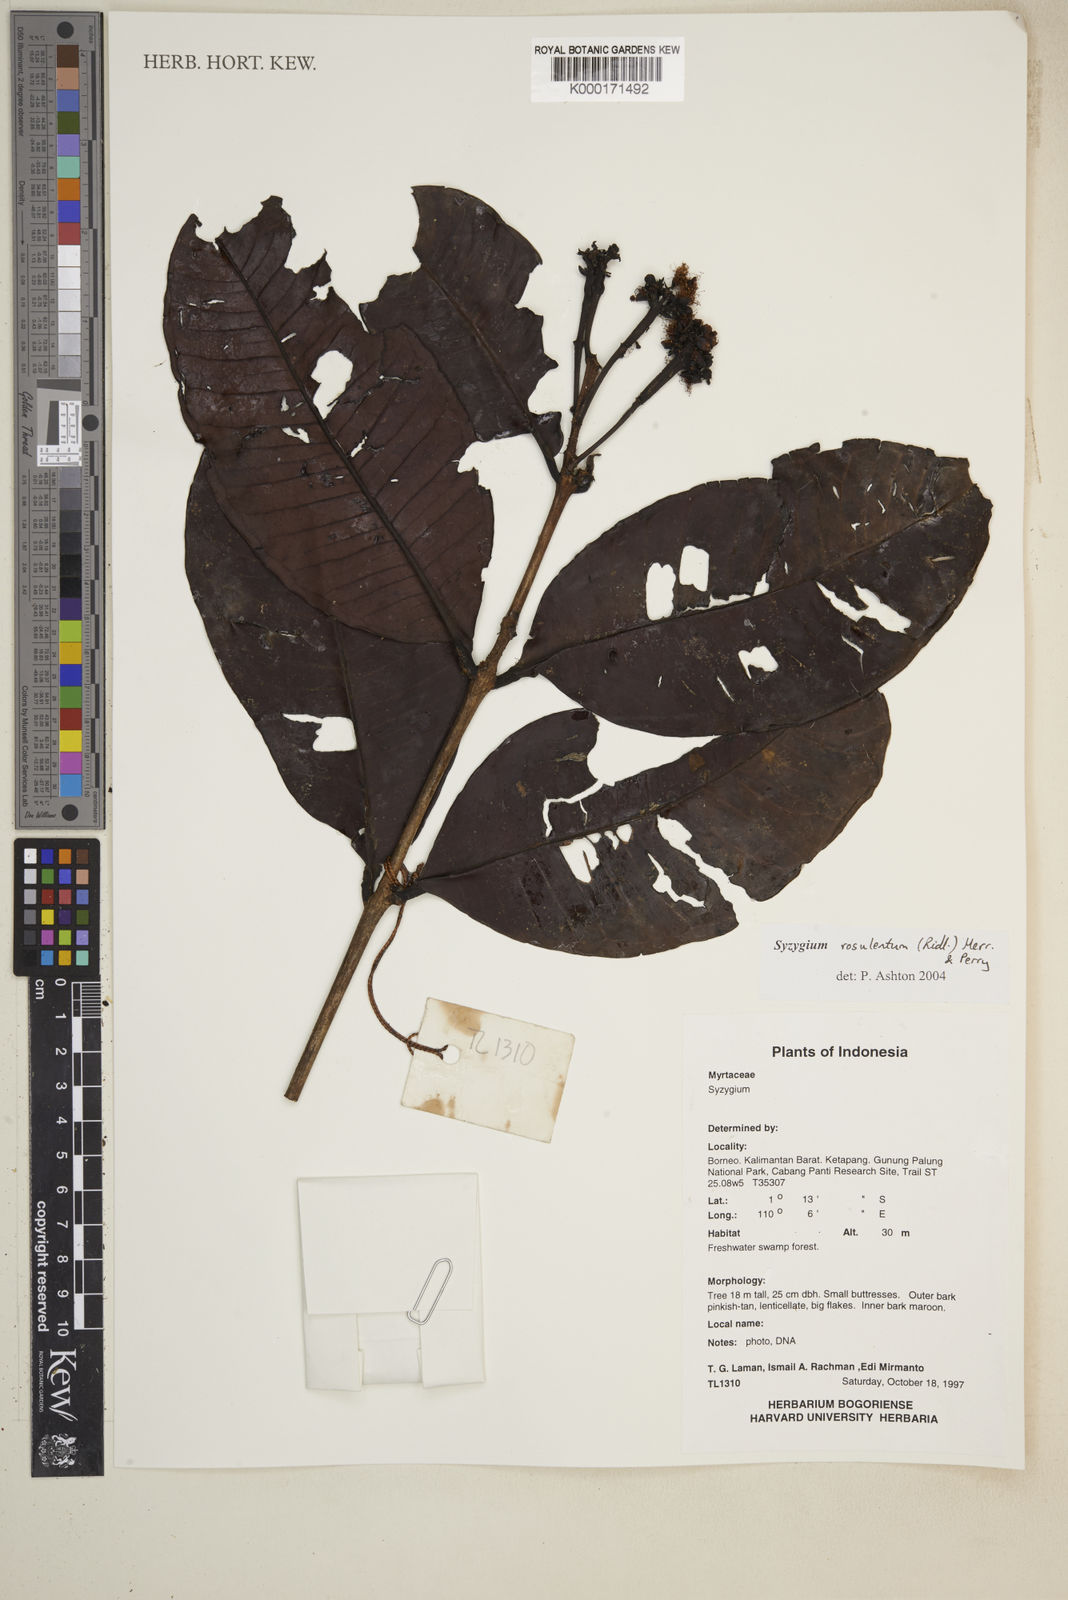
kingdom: Plantae
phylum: Tracheophyta
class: Magnoliopsida
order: Myrtales
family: Myrtaceae
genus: Syzygium
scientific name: Syzygium rosulentum
